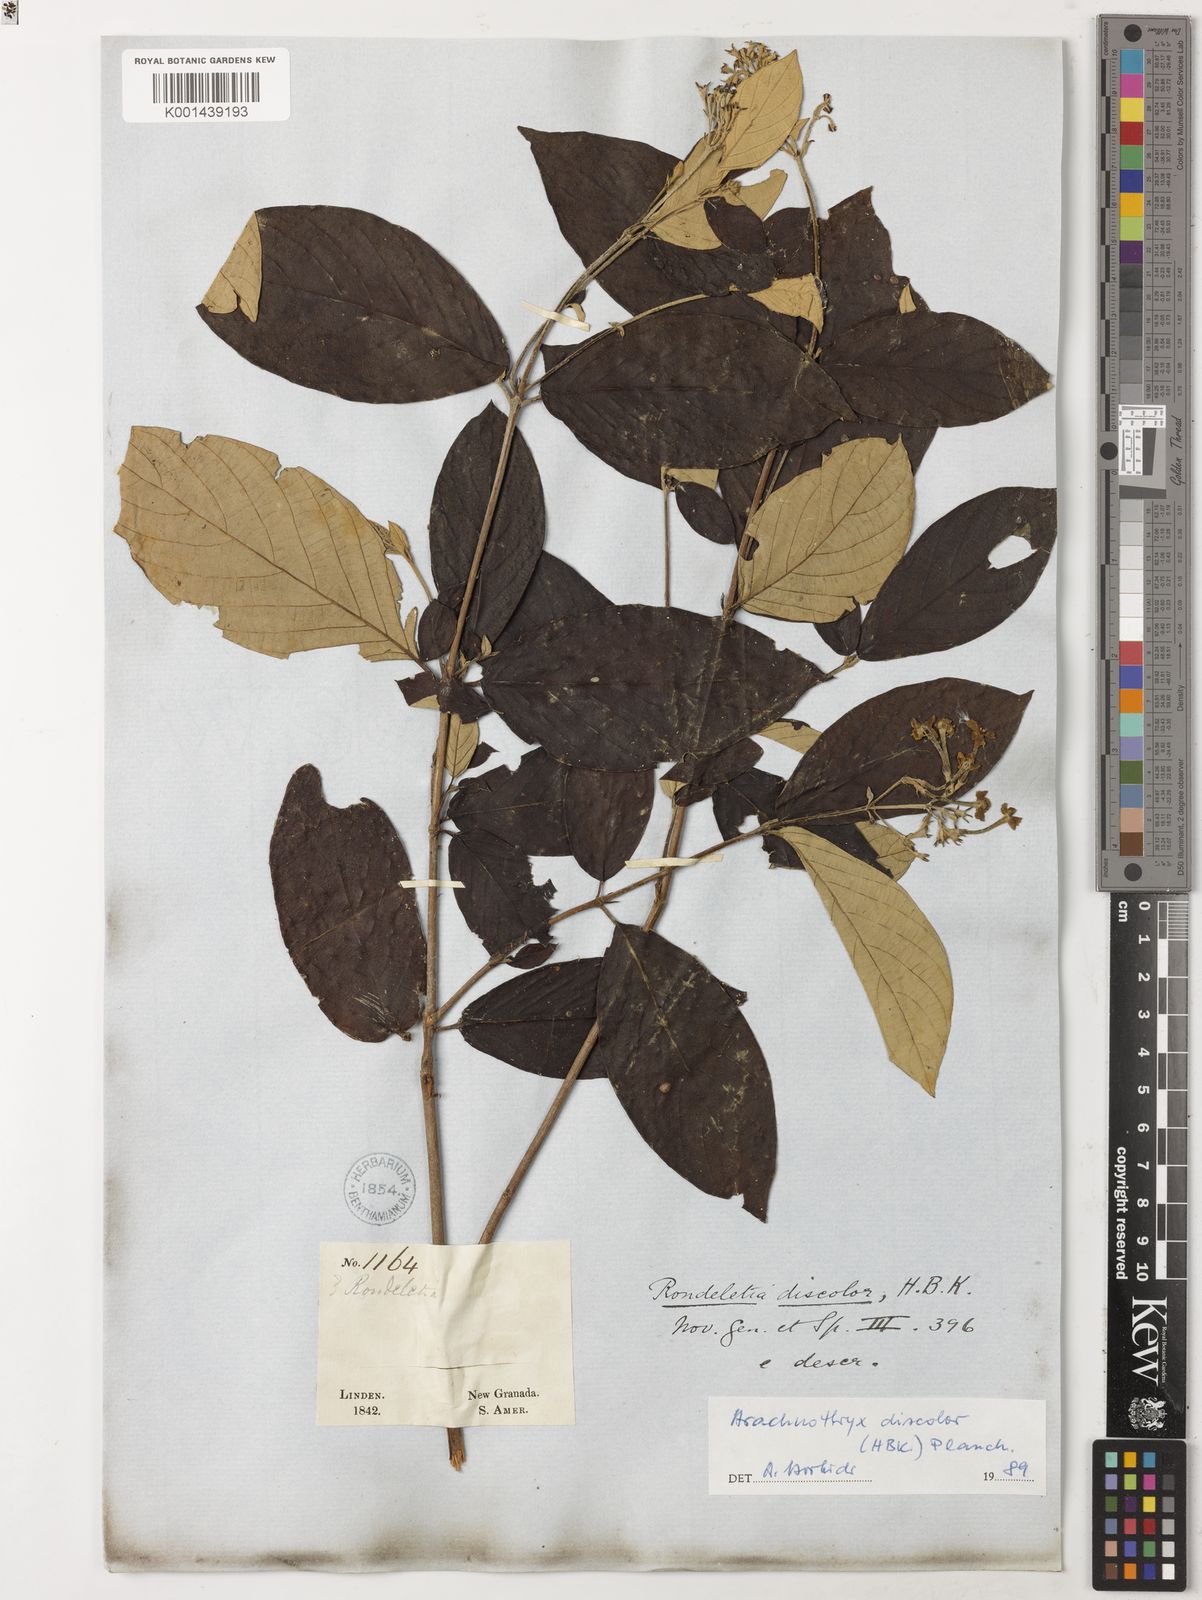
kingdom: Plantae
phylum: Tracheophyta
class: Magnoliopsida
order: Gentianales
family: Rubiaceae
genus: Arachnothryx
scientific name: Arachnothryx discolor
